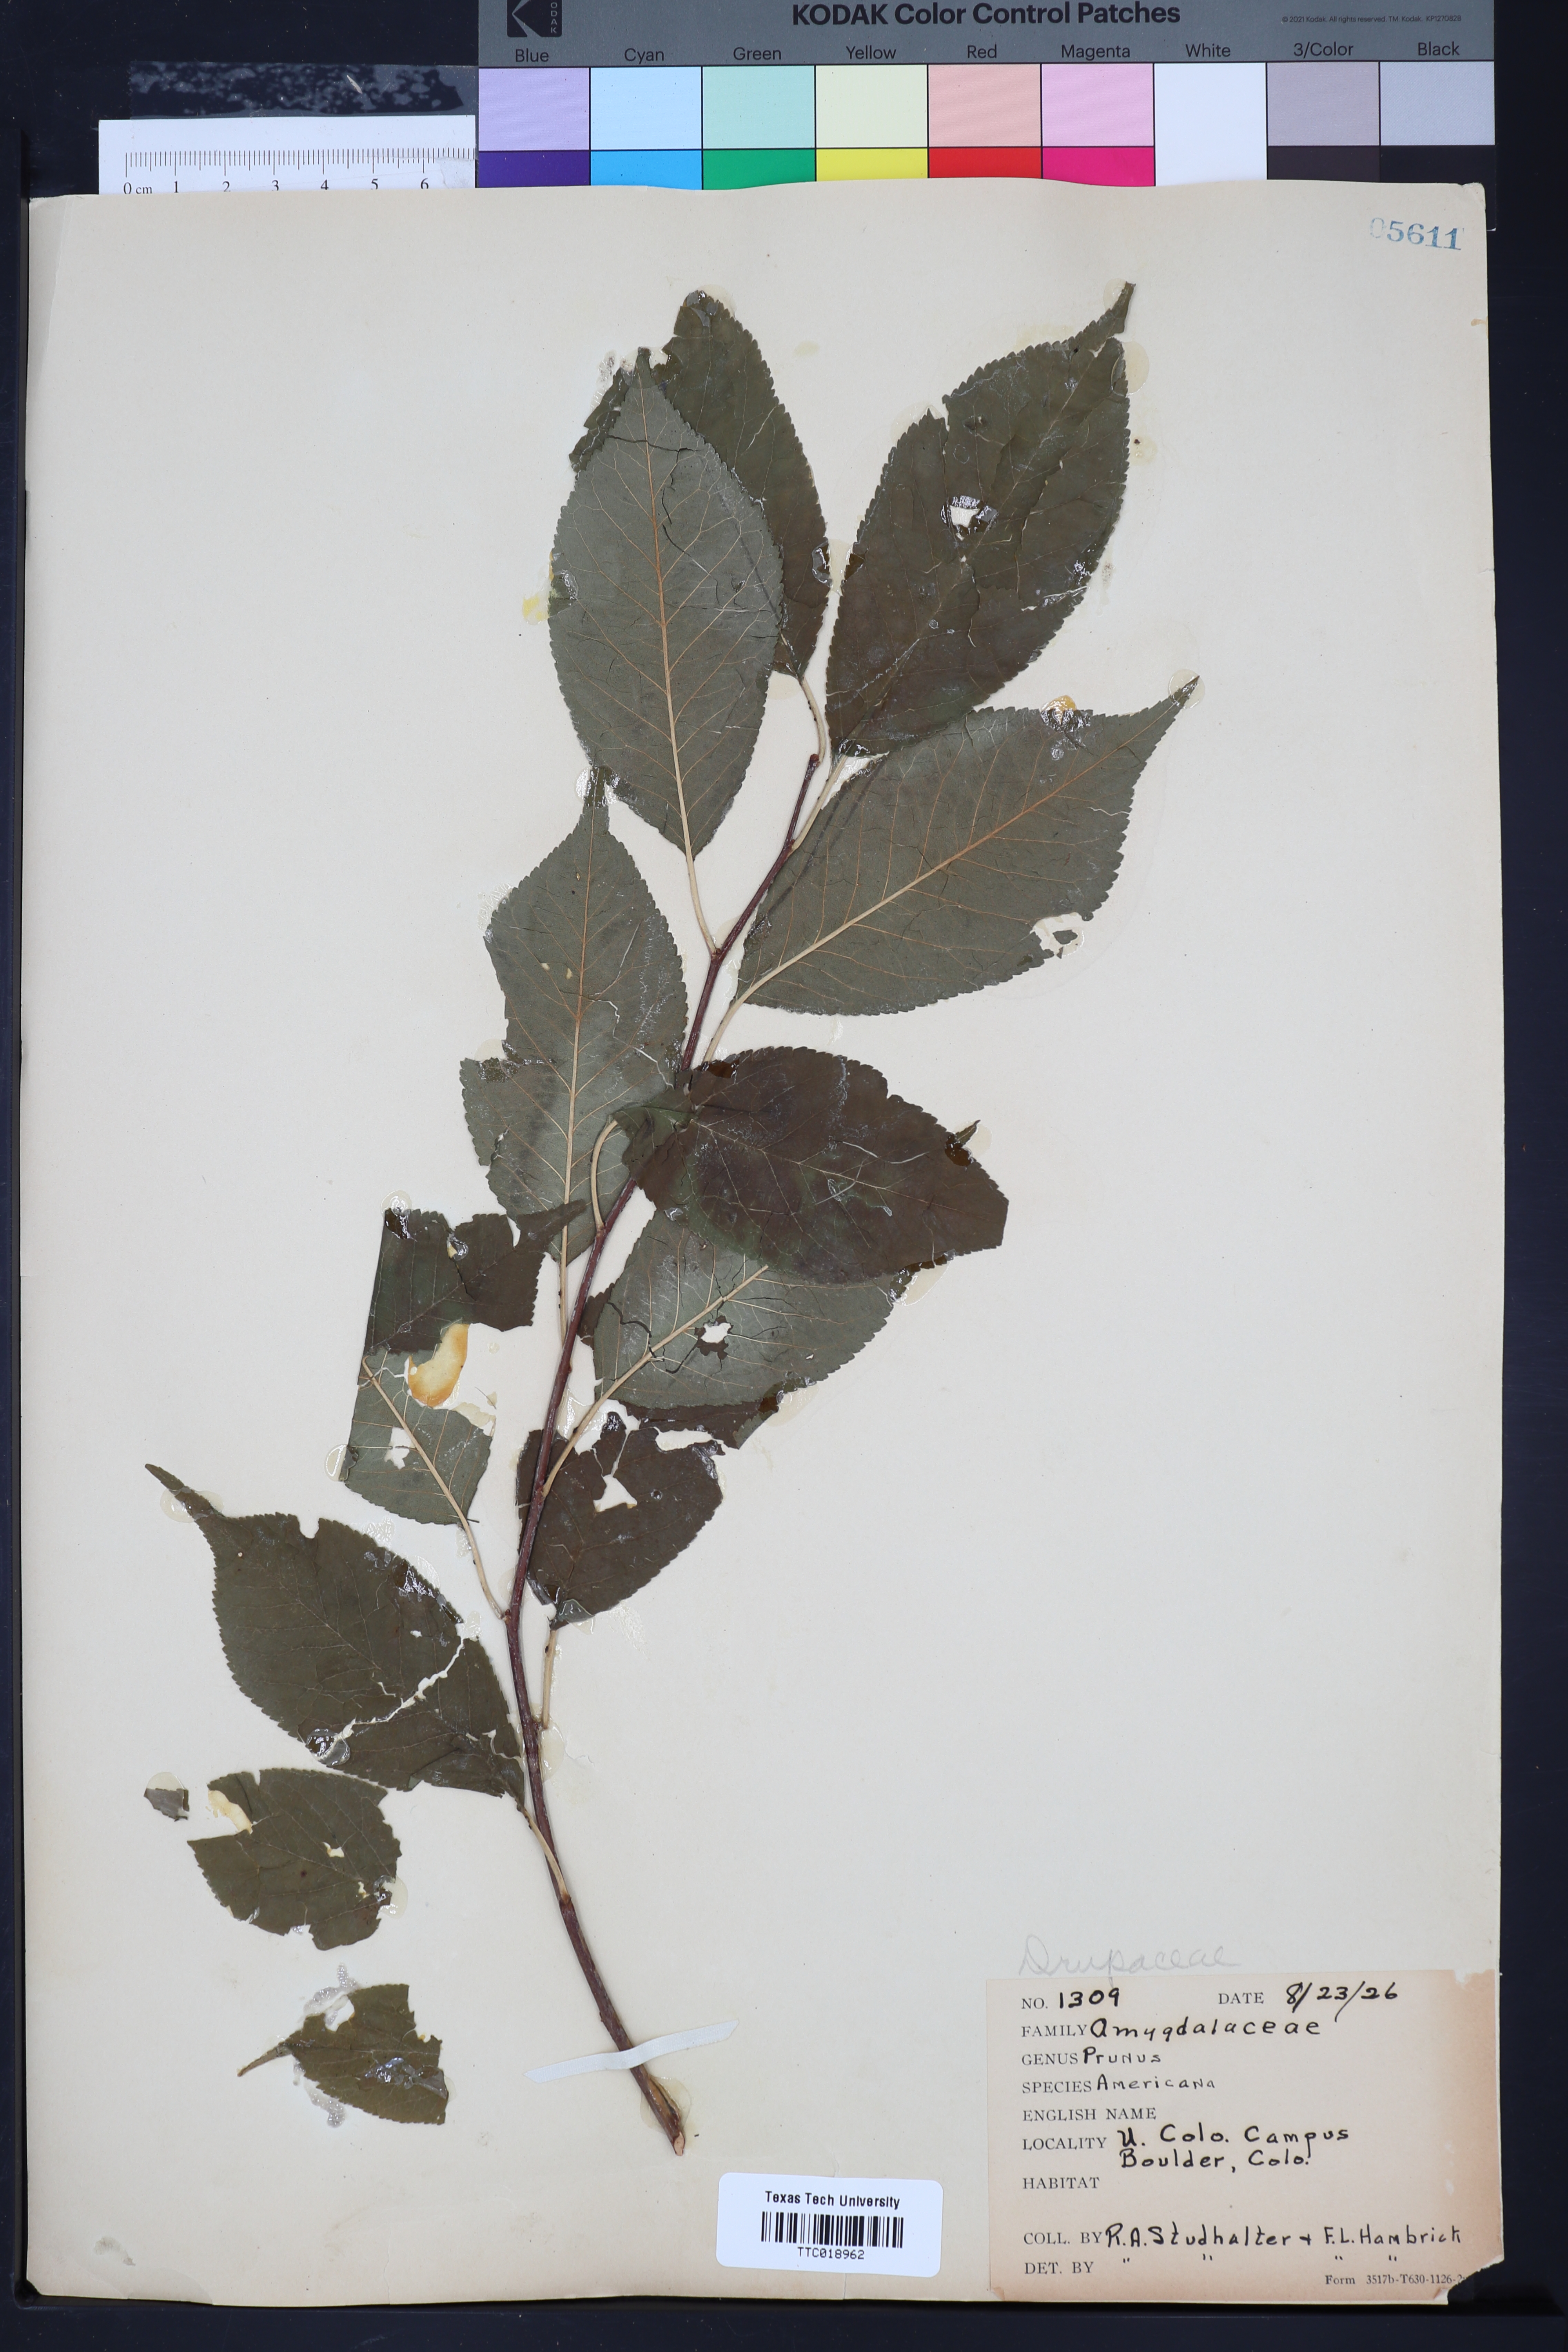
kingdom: Plantae
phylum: Tracheophyta
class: Magnoliopsida
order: Rosales
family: Rosaceae
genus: Prunus
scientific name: Prunus americana
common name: American plum
